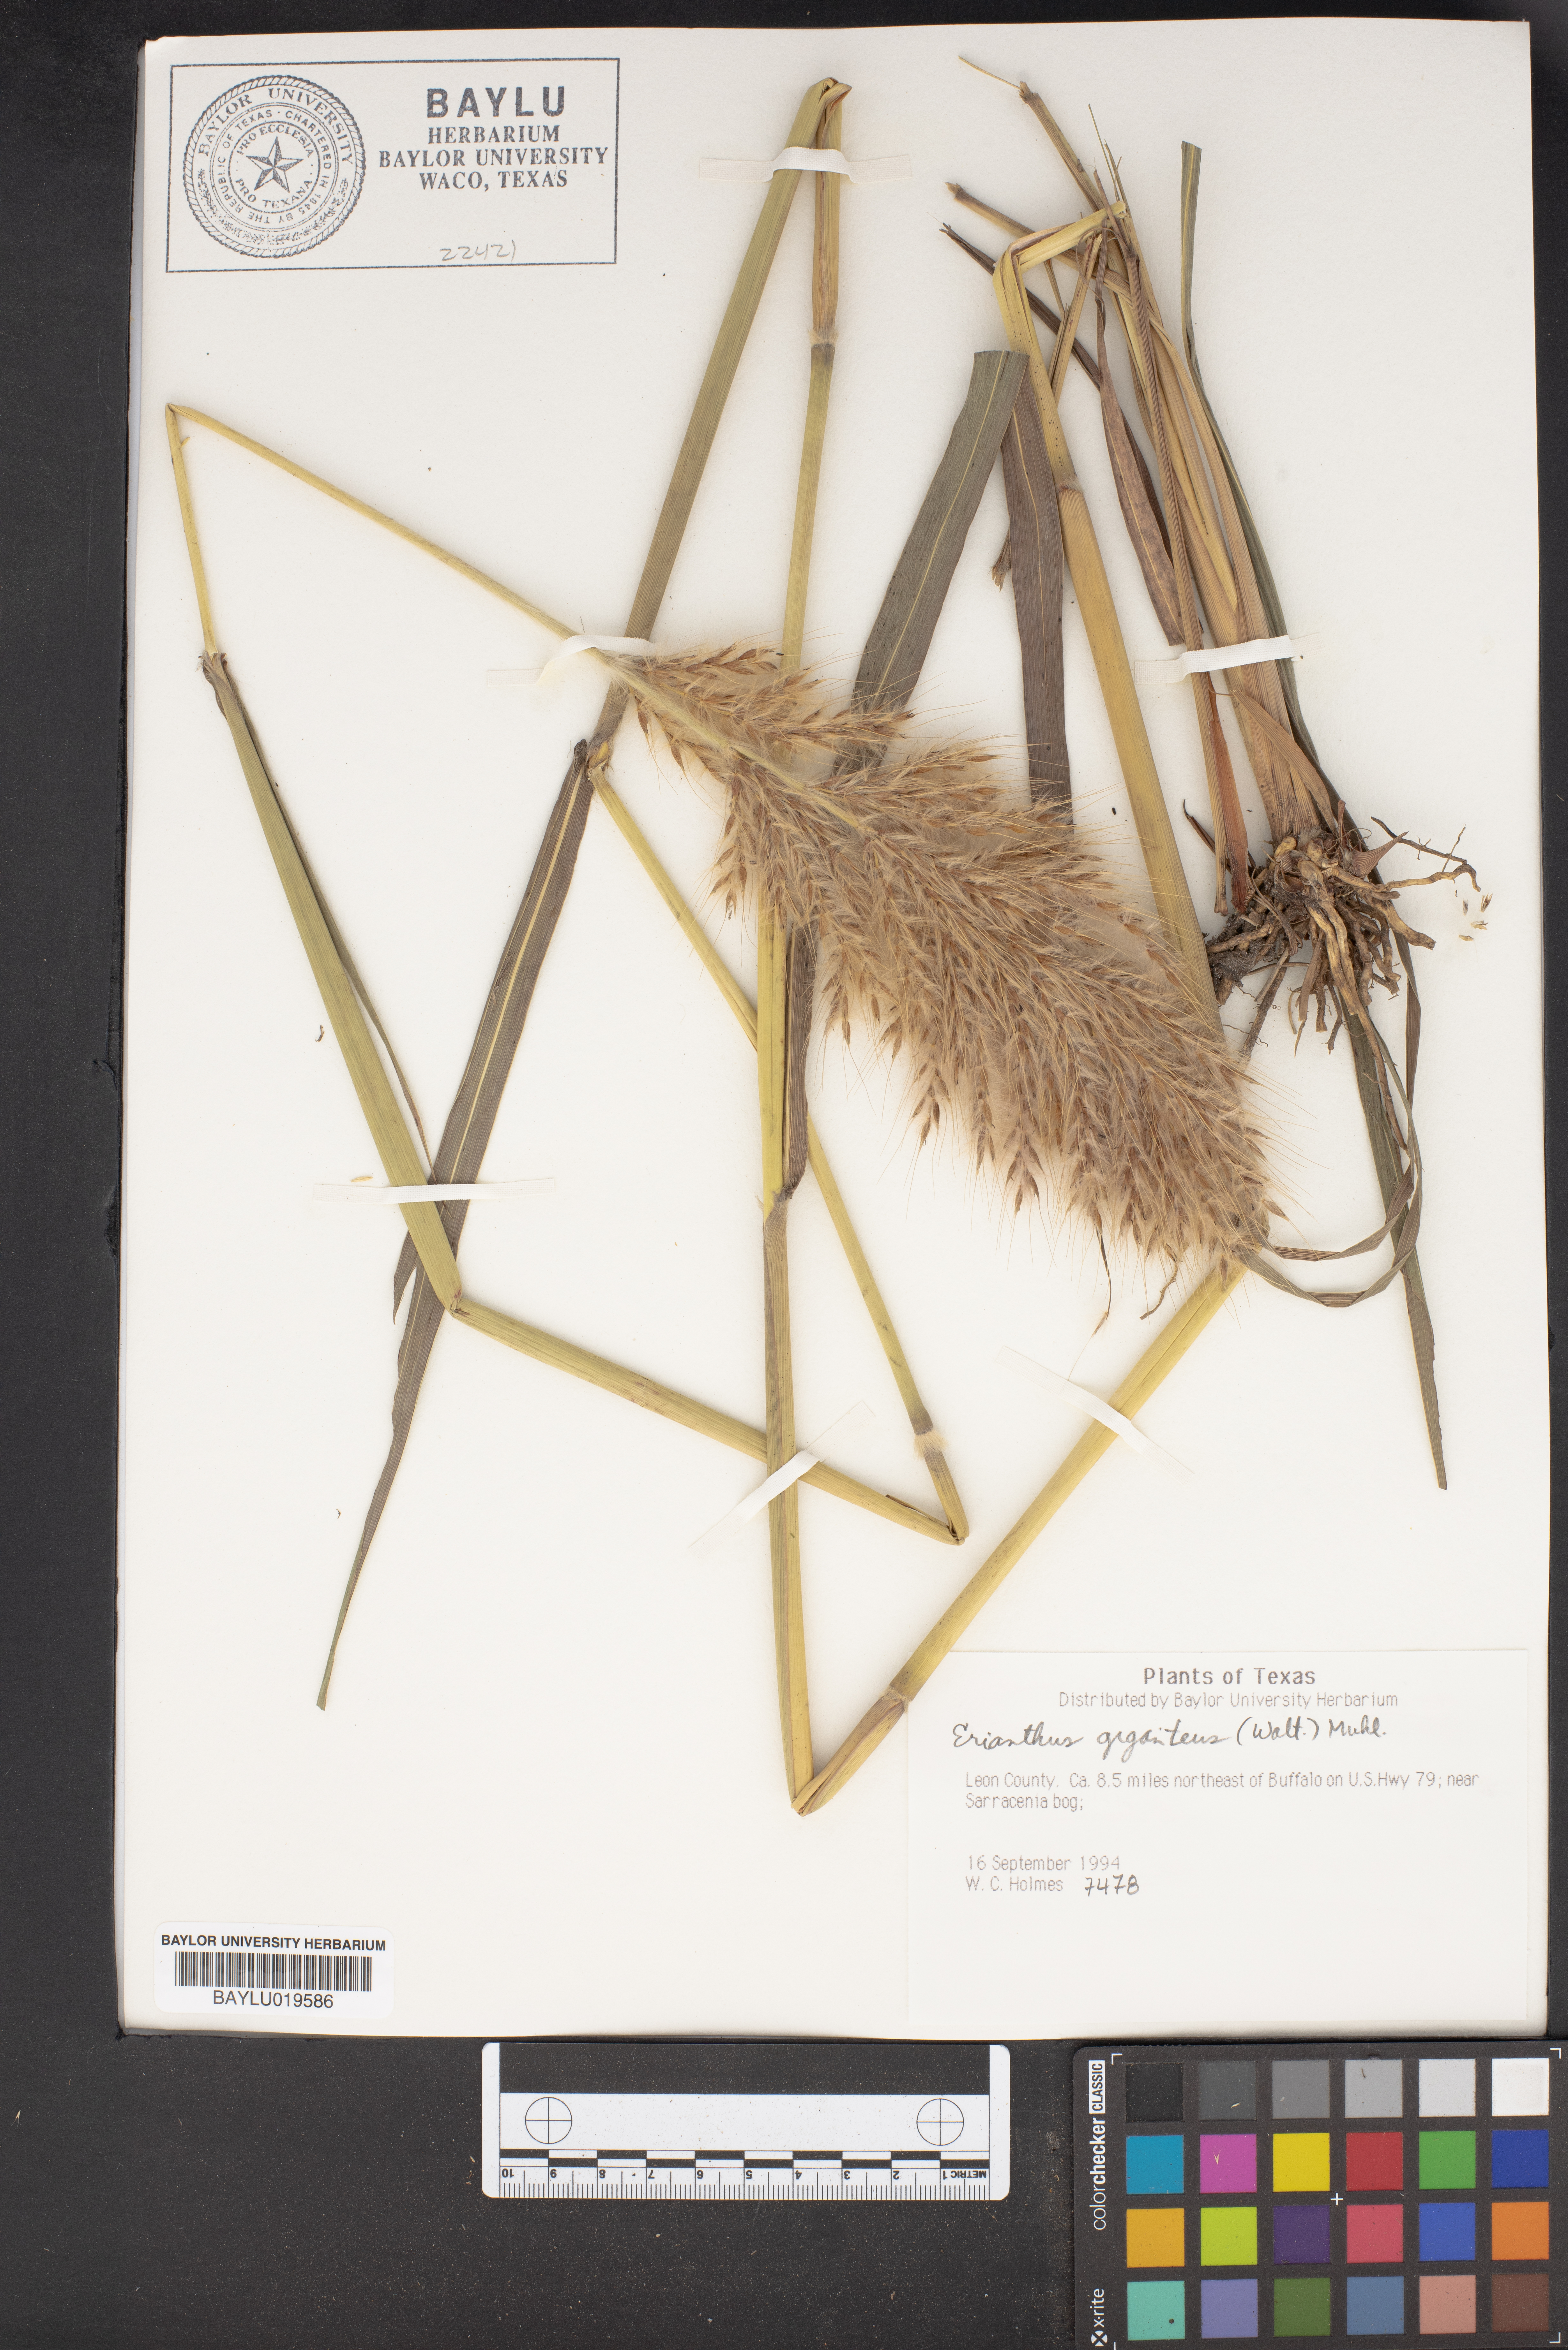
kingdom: Plantae
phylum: Tracheophyta
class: Liliopsida
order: Poales
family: Poaceae
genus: Erianthus
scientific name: Erianthus giganteus
